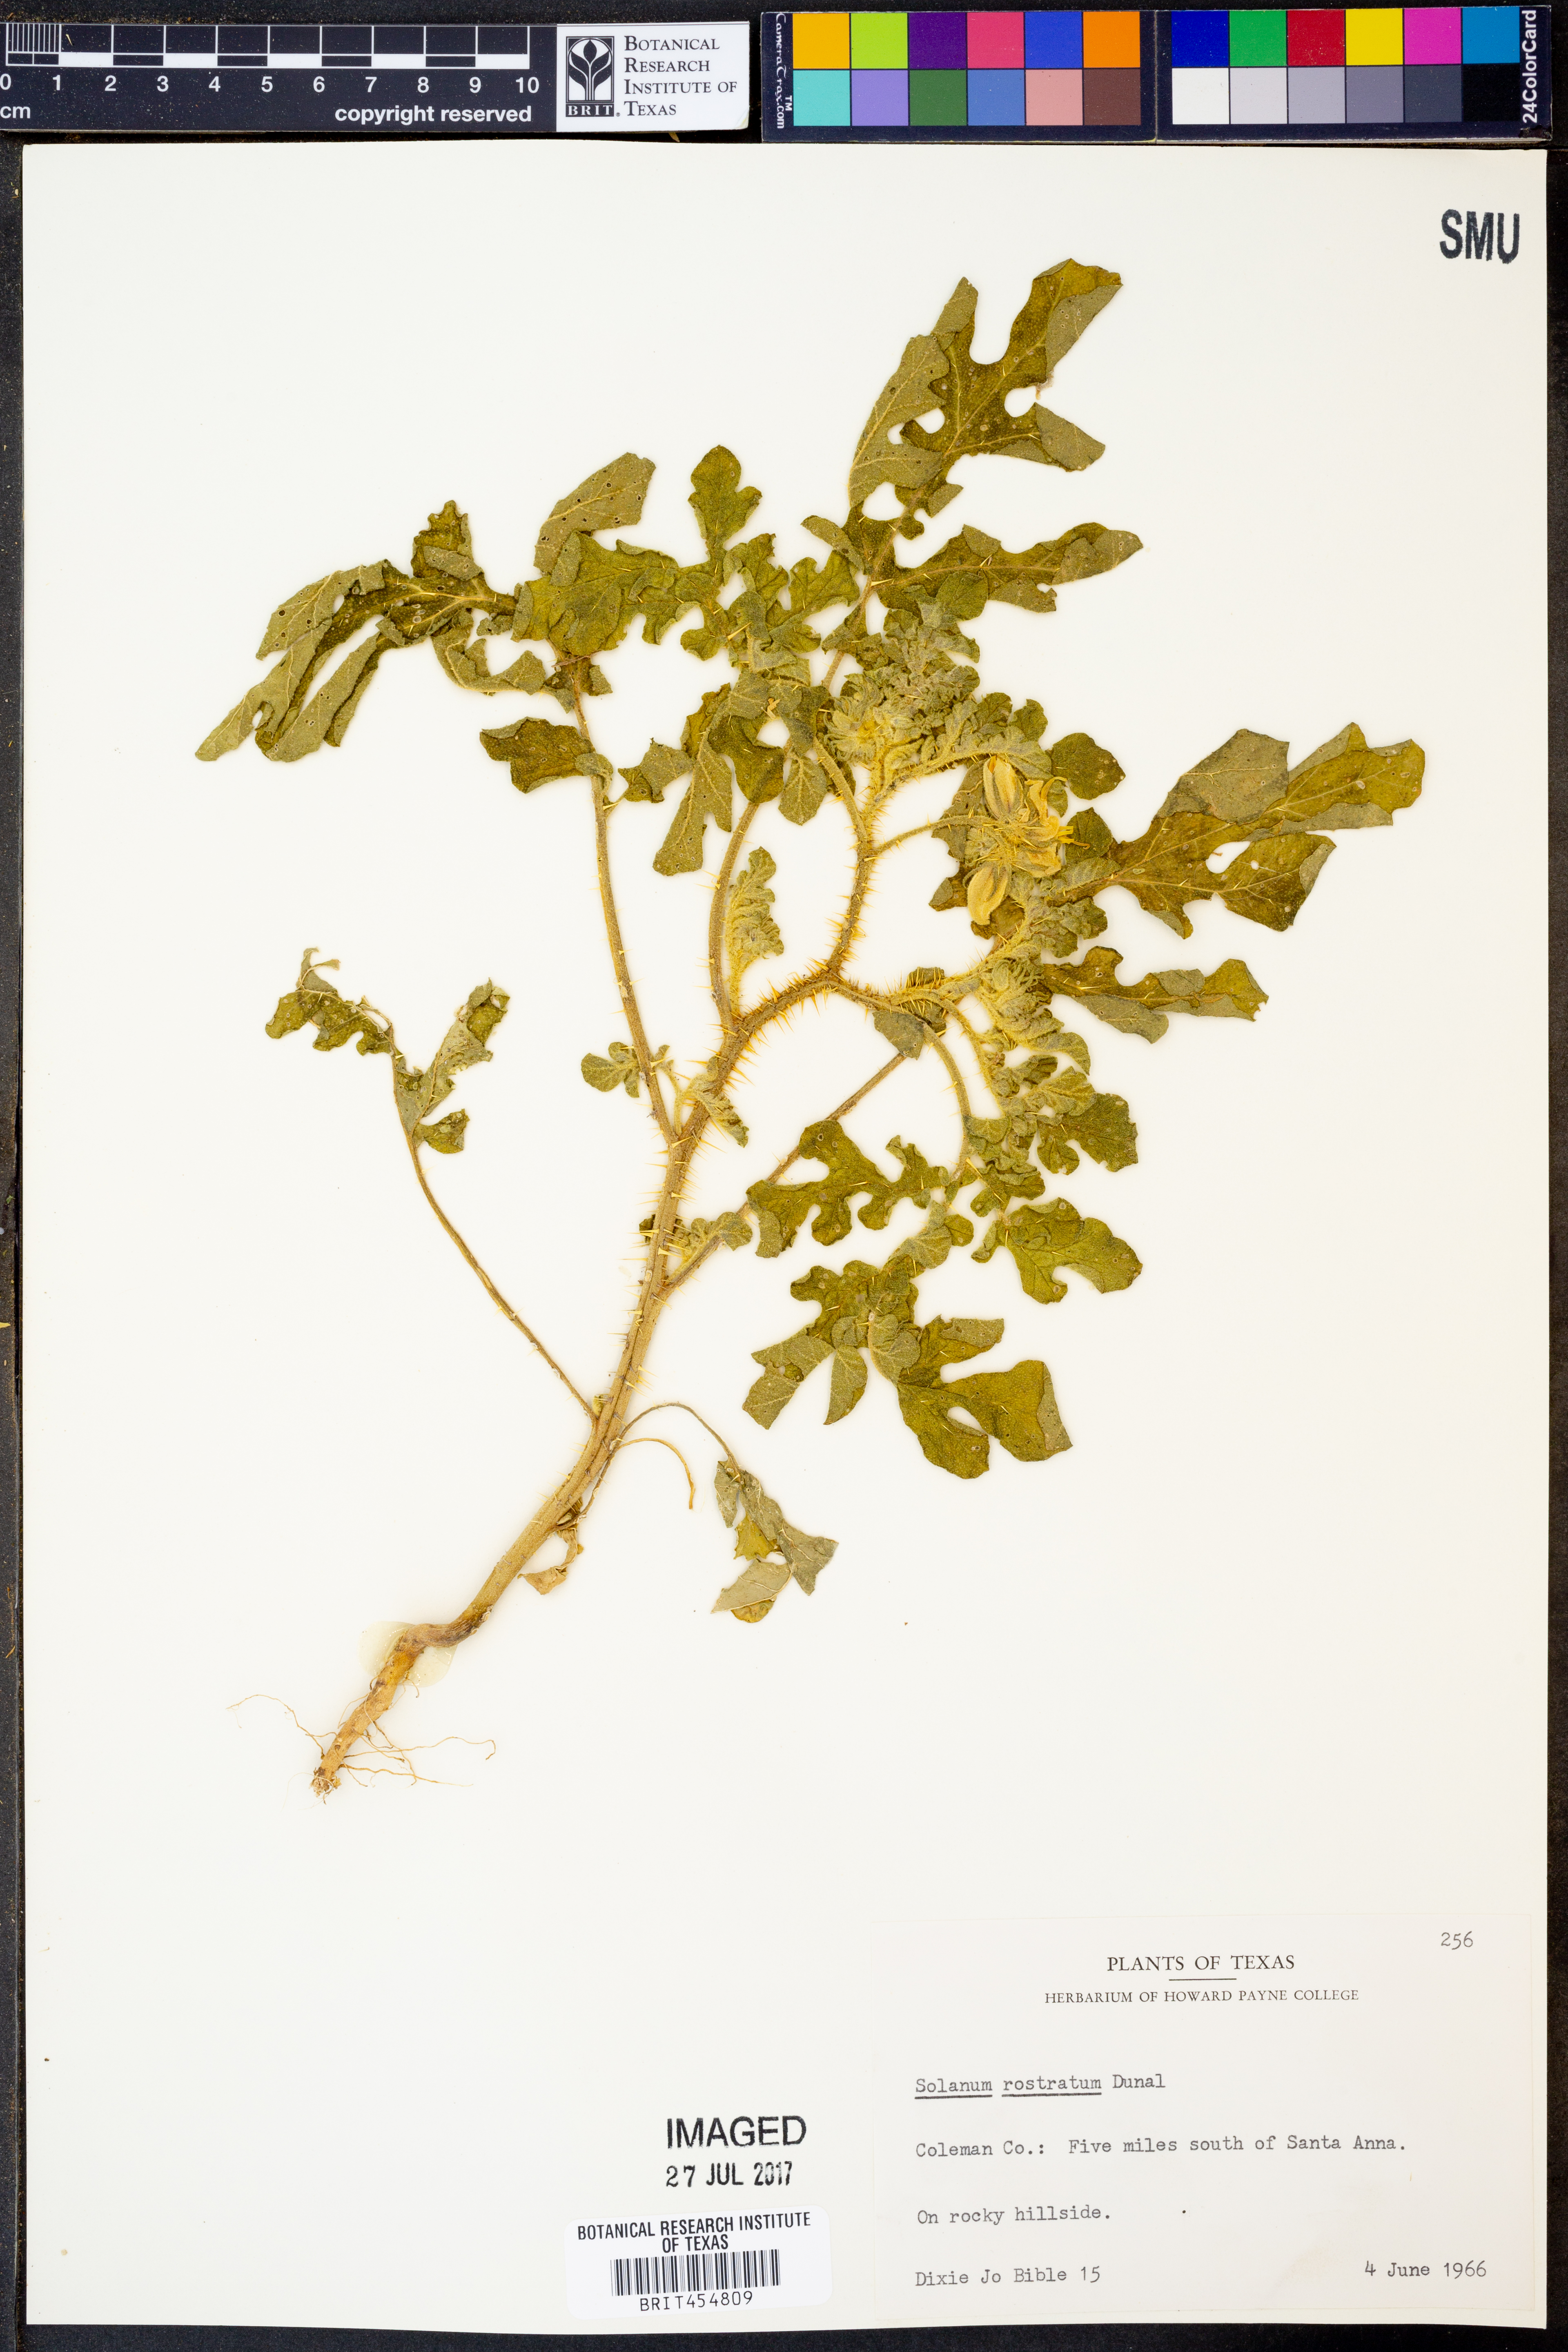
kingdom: Plantae
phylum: Tracheophyta
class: Magnoliopsida
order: Solanales
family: Solanaceae
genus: Solanum
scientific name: Solanum angustifolium
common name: Buffalobur nightshade
